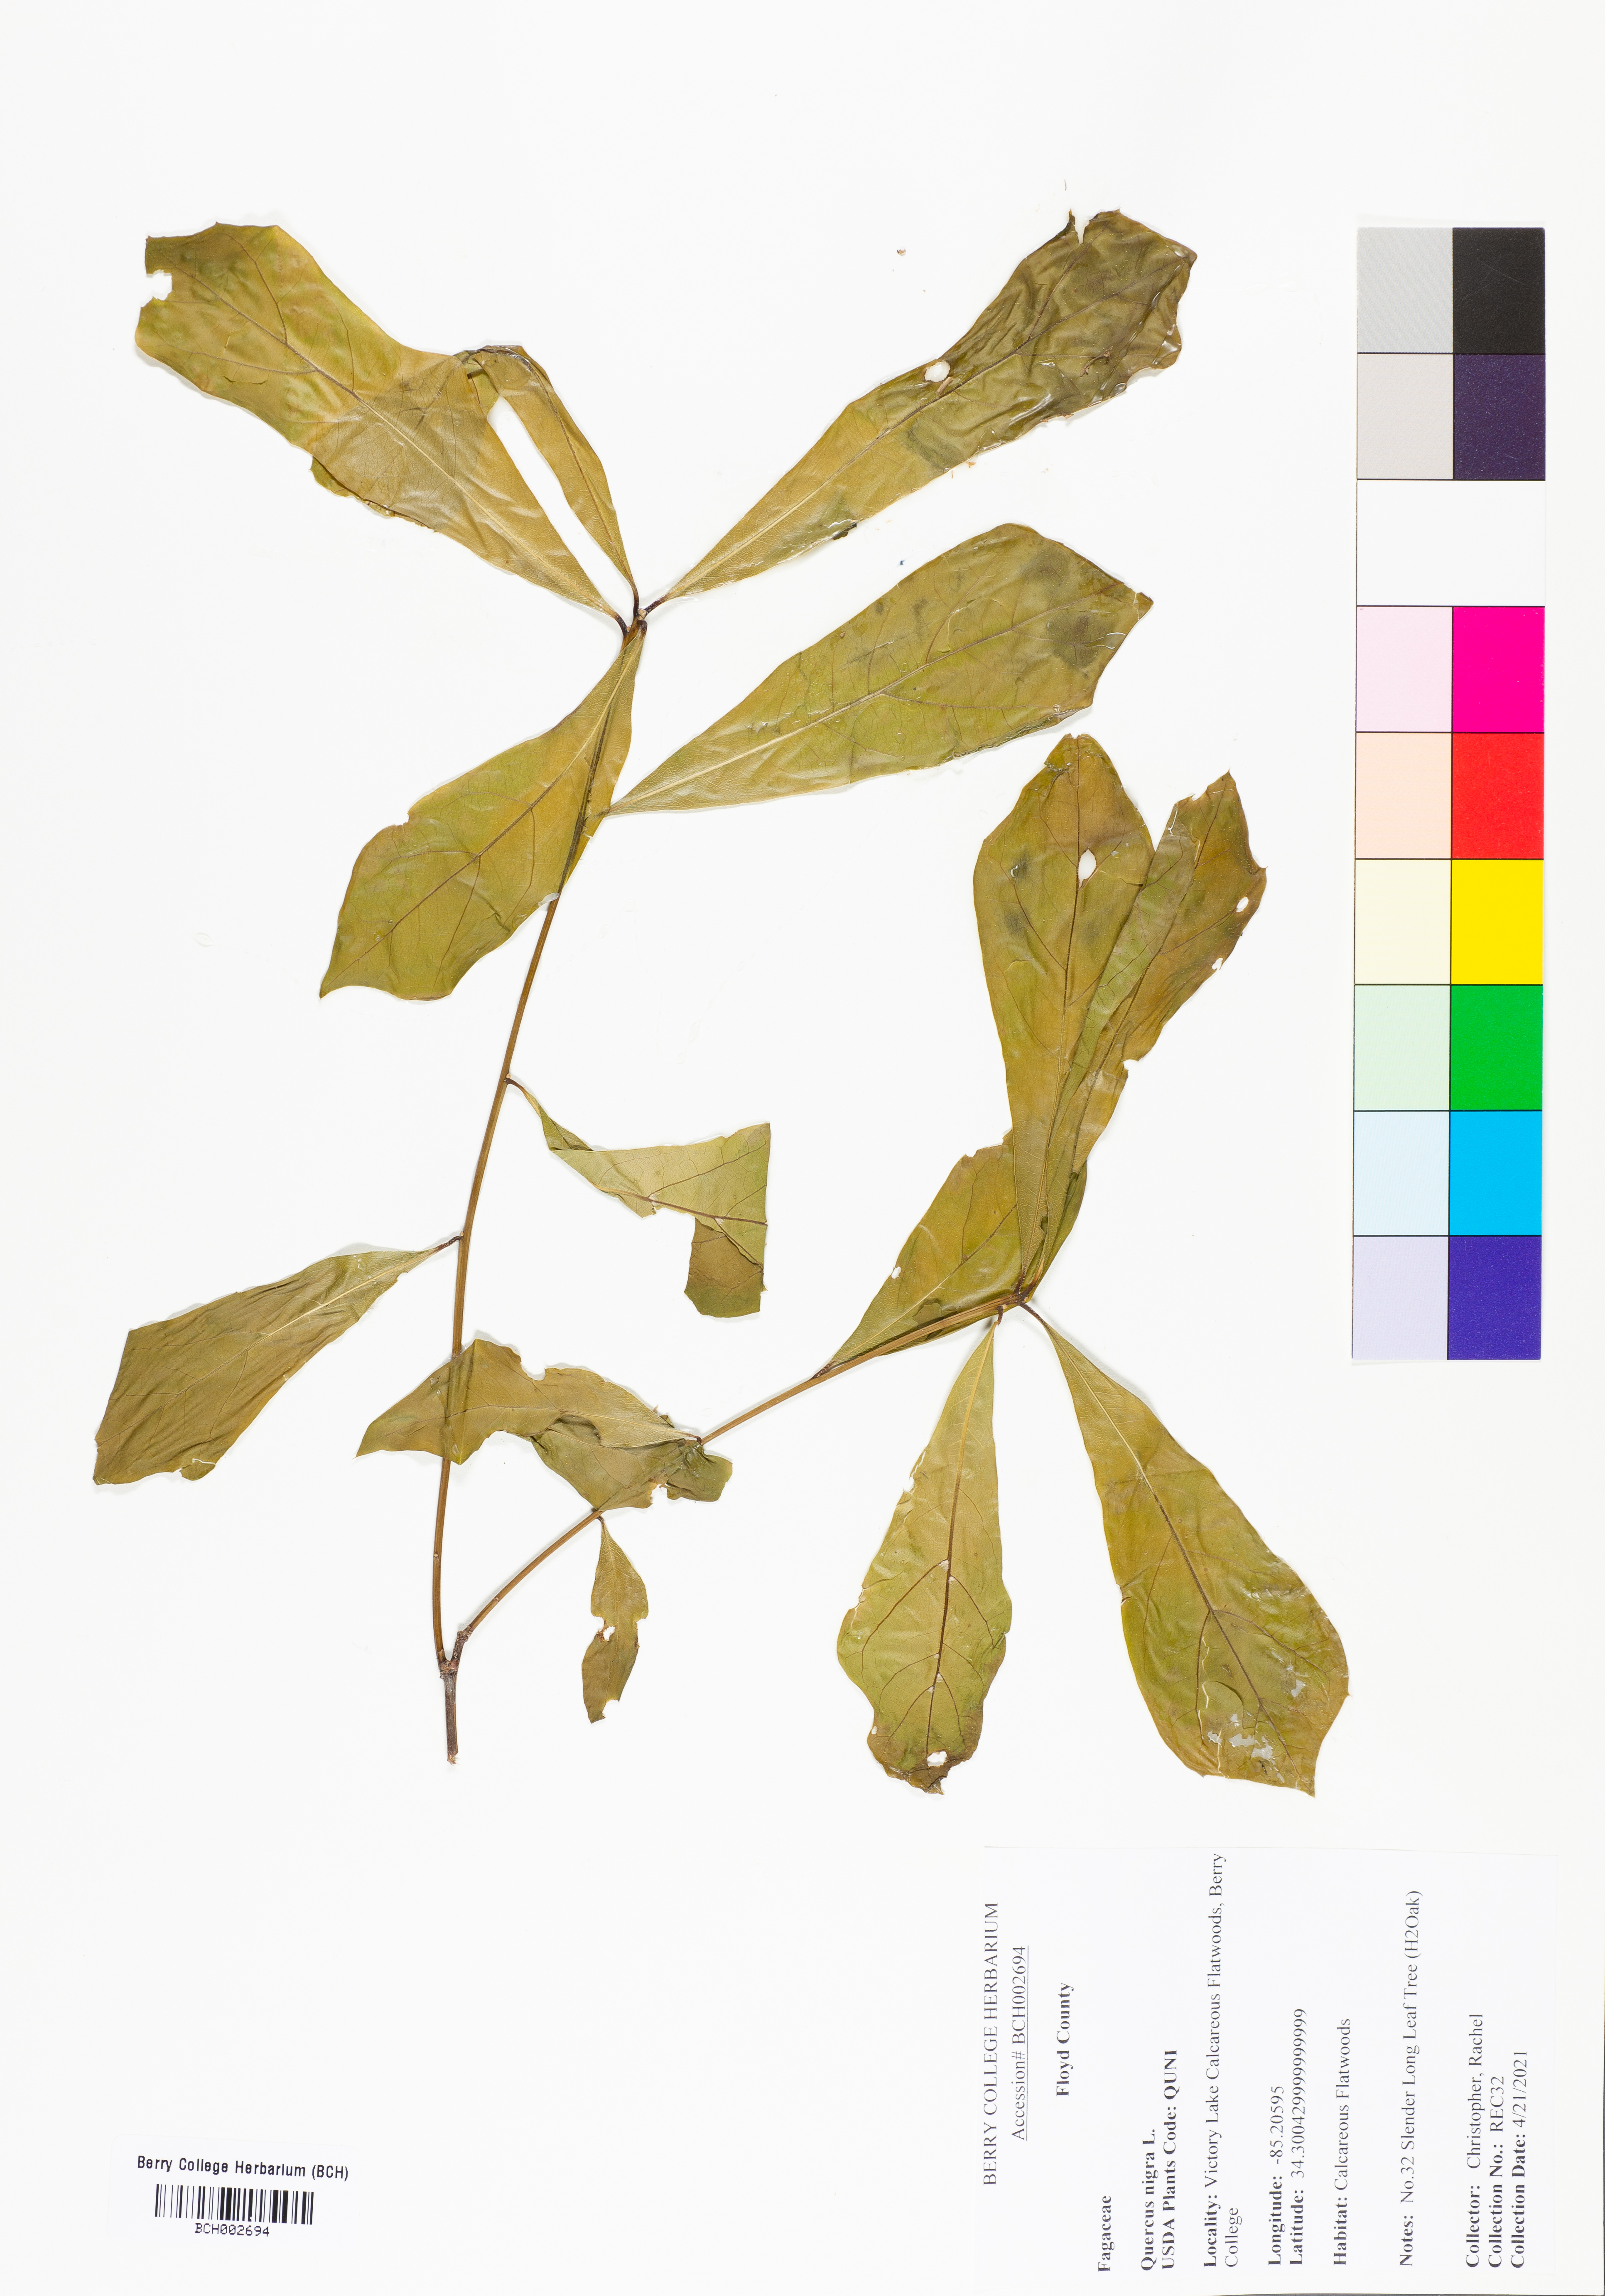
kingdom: Plantae
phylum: Tracheophyta
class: Magnoliopsida
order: Fagales
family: Fagaceae
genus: Quercus
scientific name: Quercus nigra
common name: Water oak
